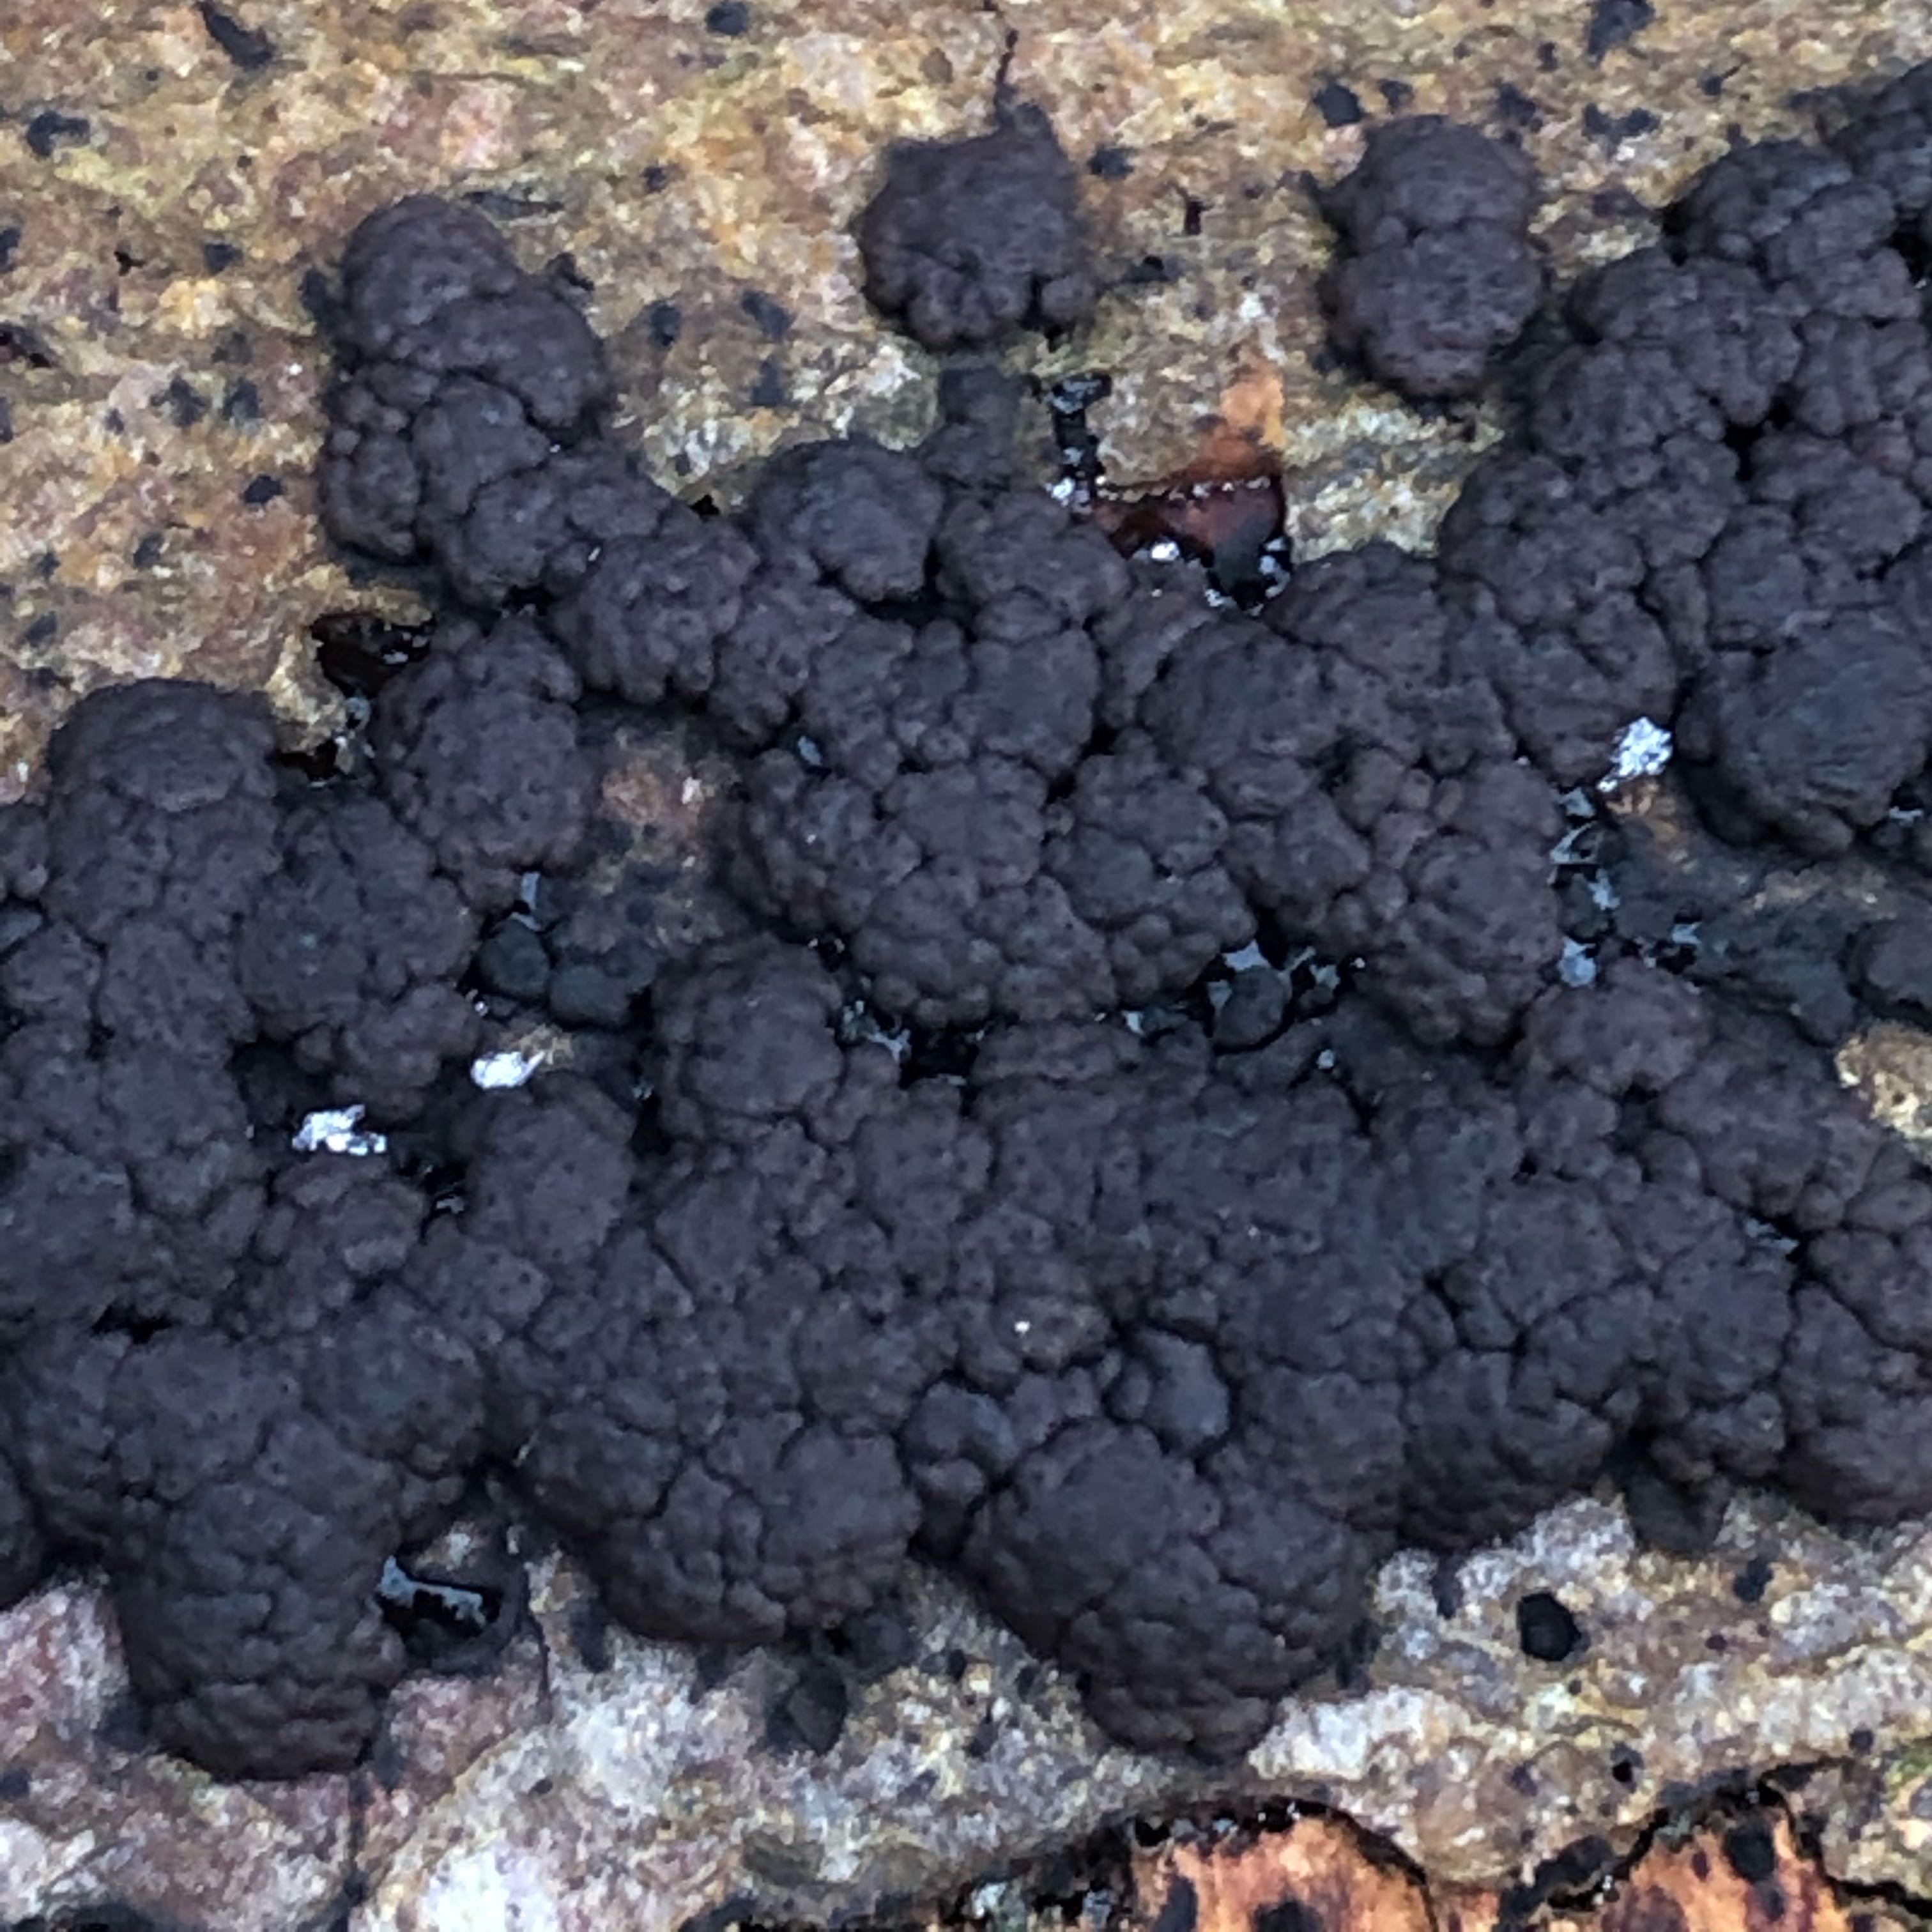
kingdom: Fungi
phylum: Ascomycota
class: Sordariomycetes
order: Xylariales
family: Hypoxylaceae
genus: Jackrogersella
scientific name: Jackrogersella cohaerens
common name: sammenflydende kulbær
